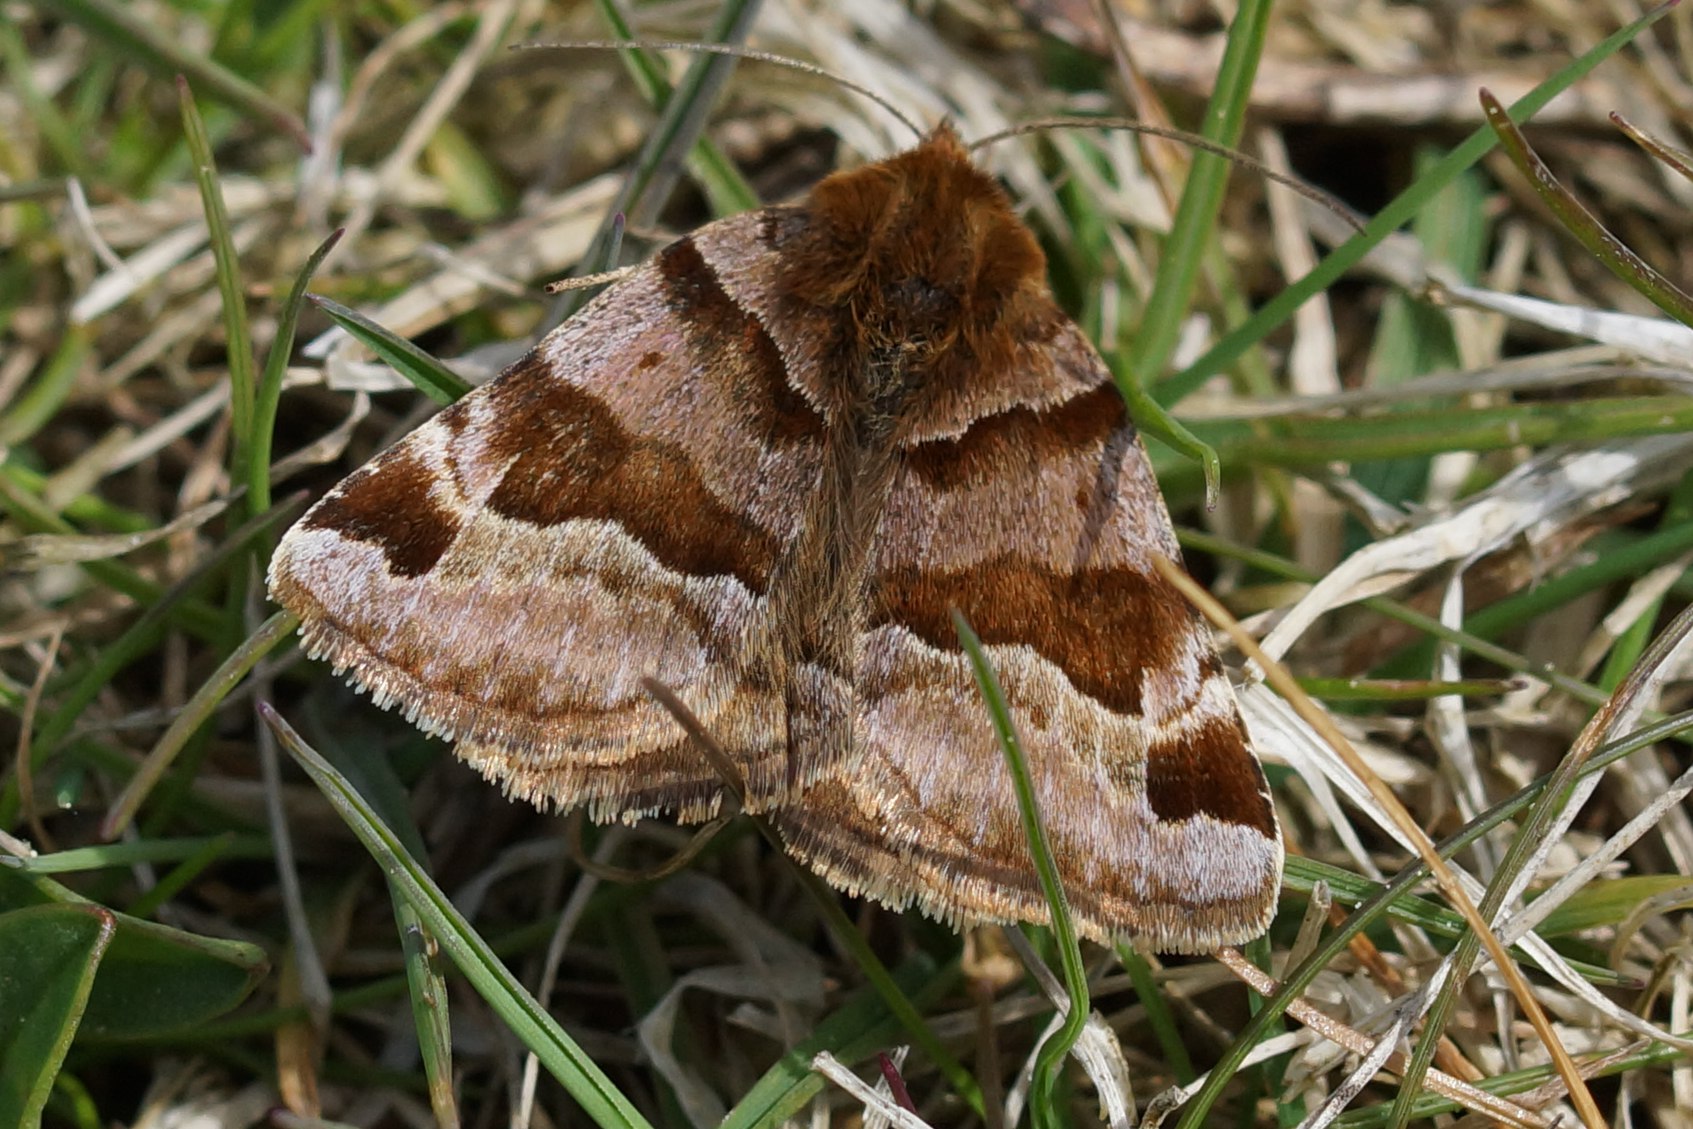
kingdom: Animalia
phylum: Arthropoda
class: Insecta
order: Lepidoptera
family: Erebidae
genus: Euclidia
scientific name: Euclidia glyphica
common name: Brun kløverugle
